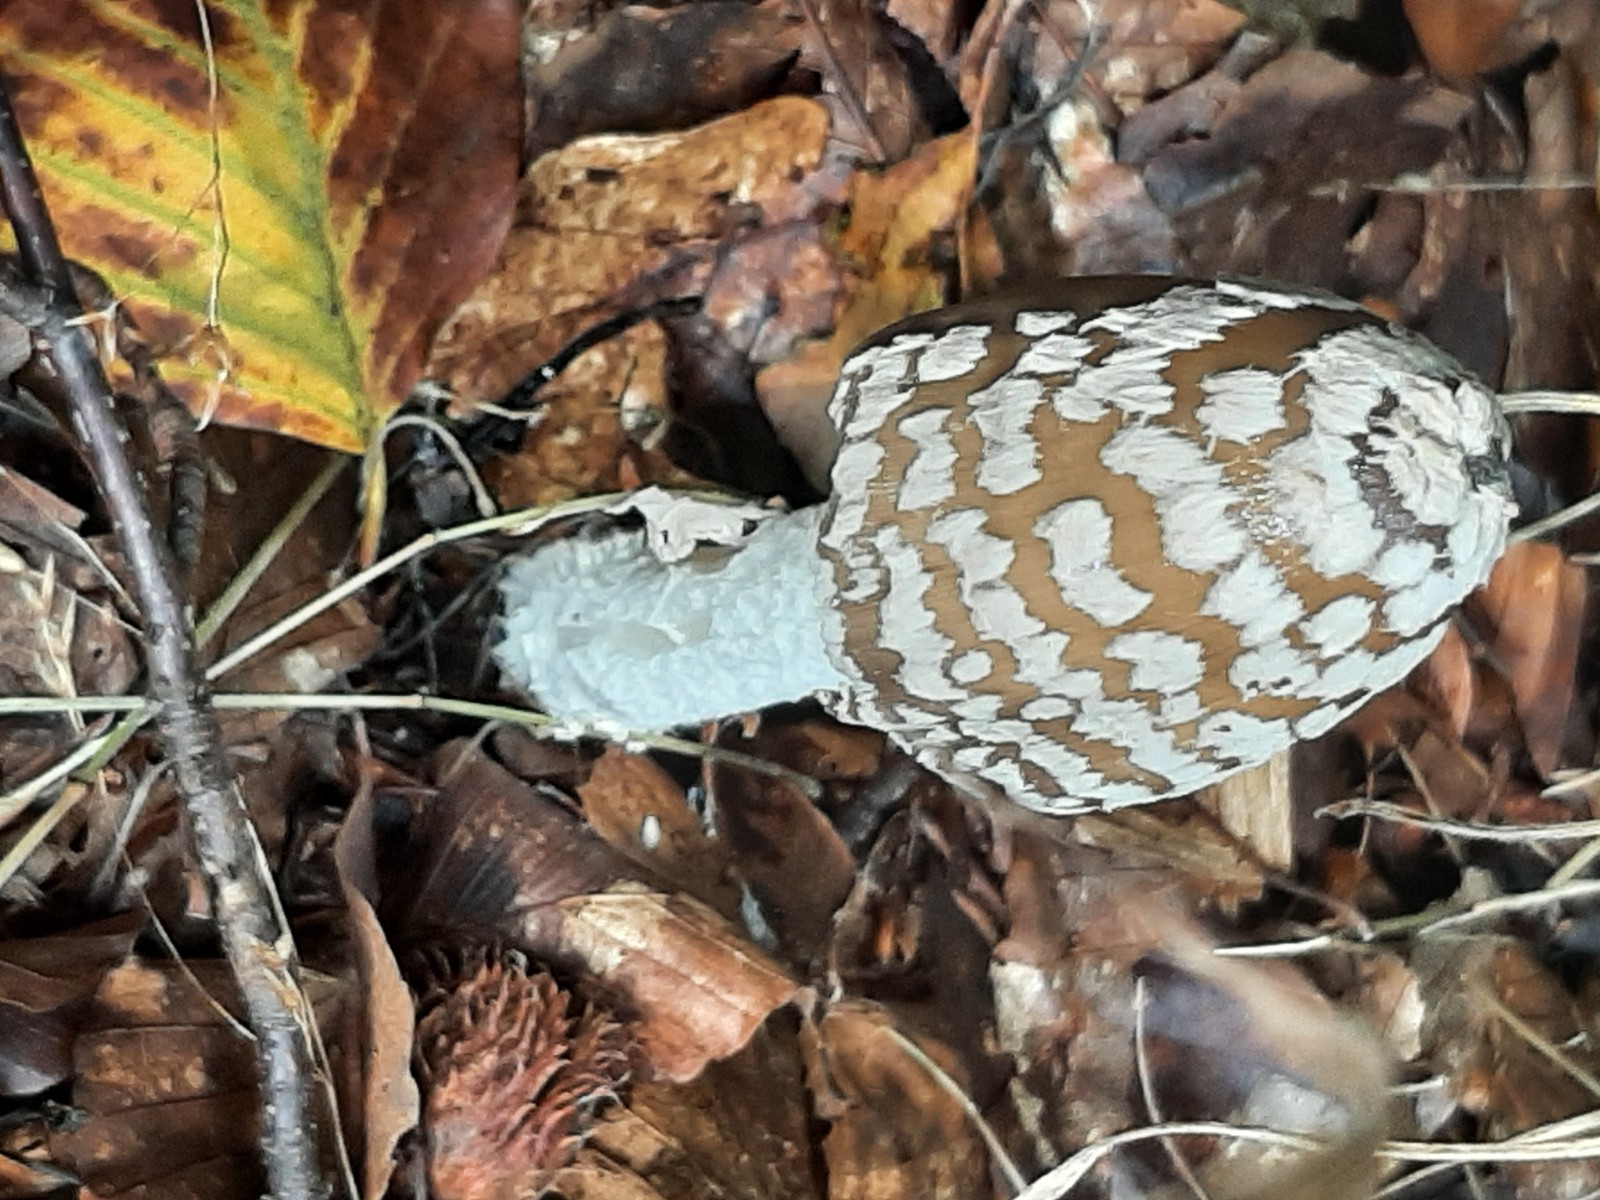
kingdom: Fungi
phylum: Basidiomycota
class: Agaricomycetes
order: Agaricales
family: Psathyrellaceae
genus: Coprinopsis
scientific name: Coprinopsis picacea
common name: skade-blækhat
